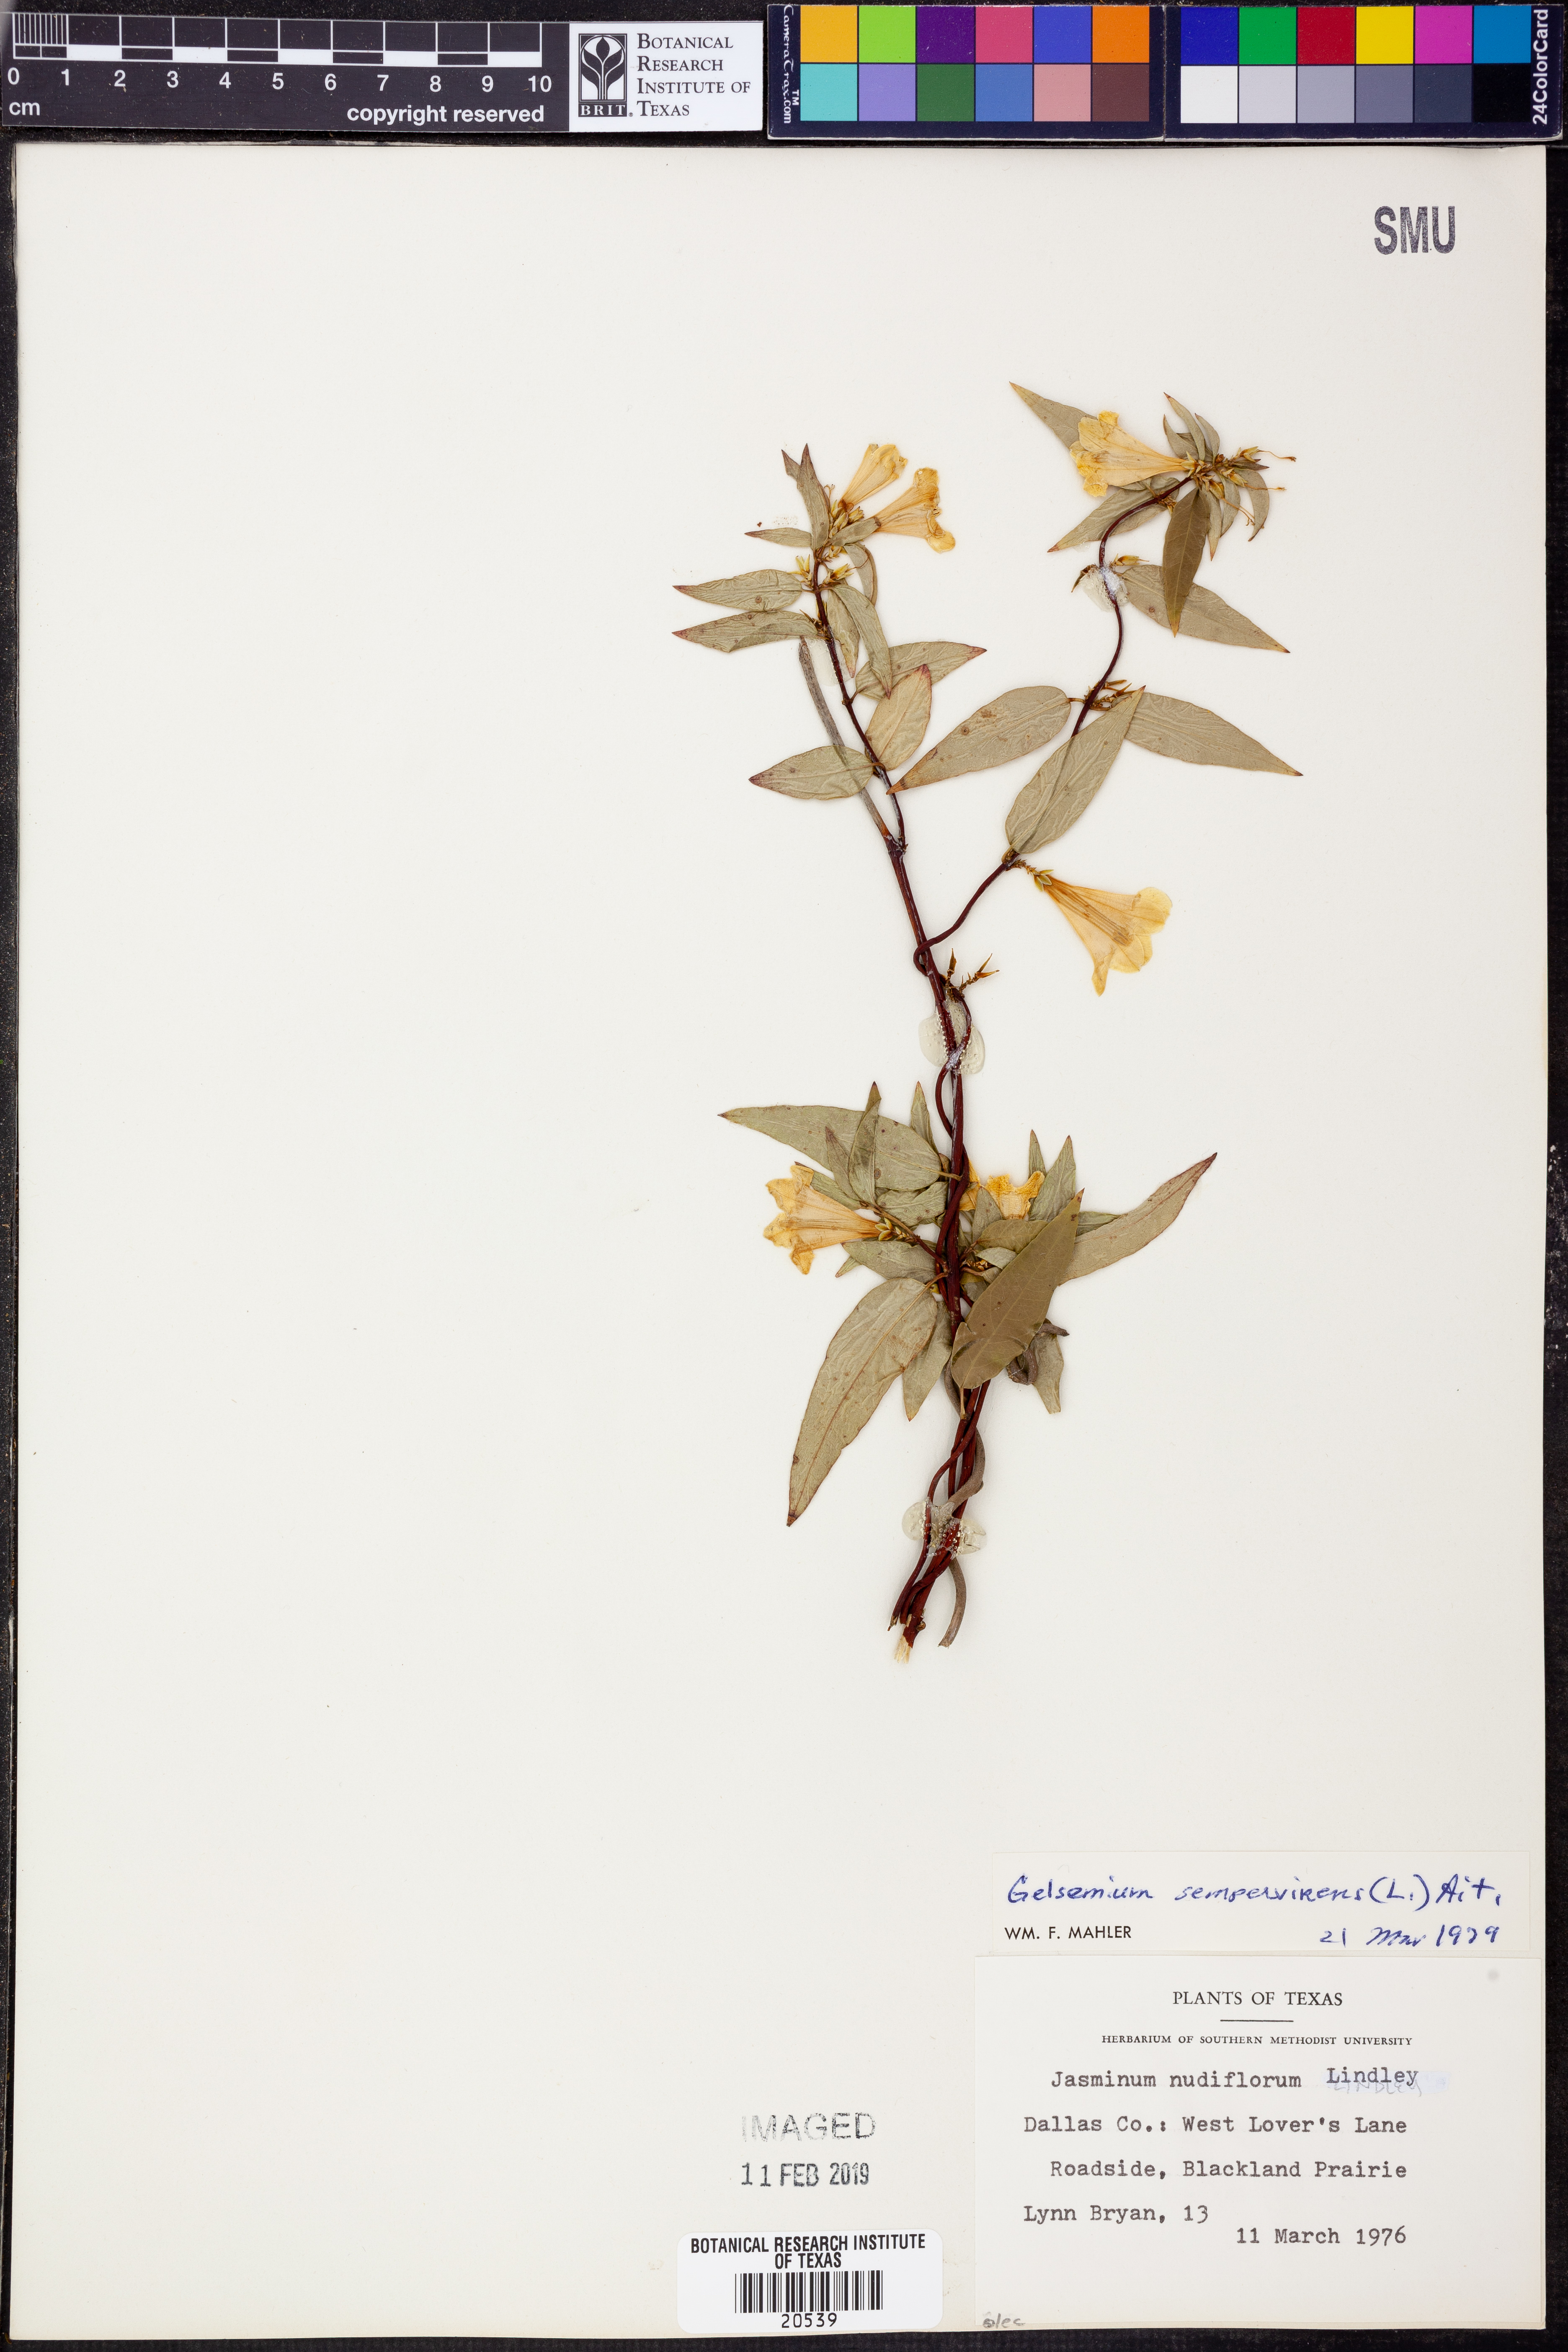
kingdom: Plantae
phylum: Tracheophyta
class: Magnoliopsida
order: Gentianales
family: Gelsemiaceae
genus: Gelsemium
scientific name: Gelsemium sempervirens
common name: Carolina-jasmine
